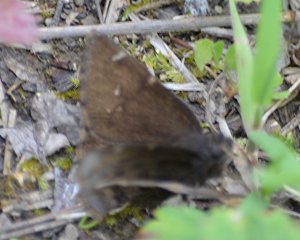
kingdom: Animalia
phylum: Arthropoda
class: Insecta
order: Lepidoptera
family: Hesperiidae
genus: Autochton
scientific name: Autochton
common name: Northern Cloudywing
